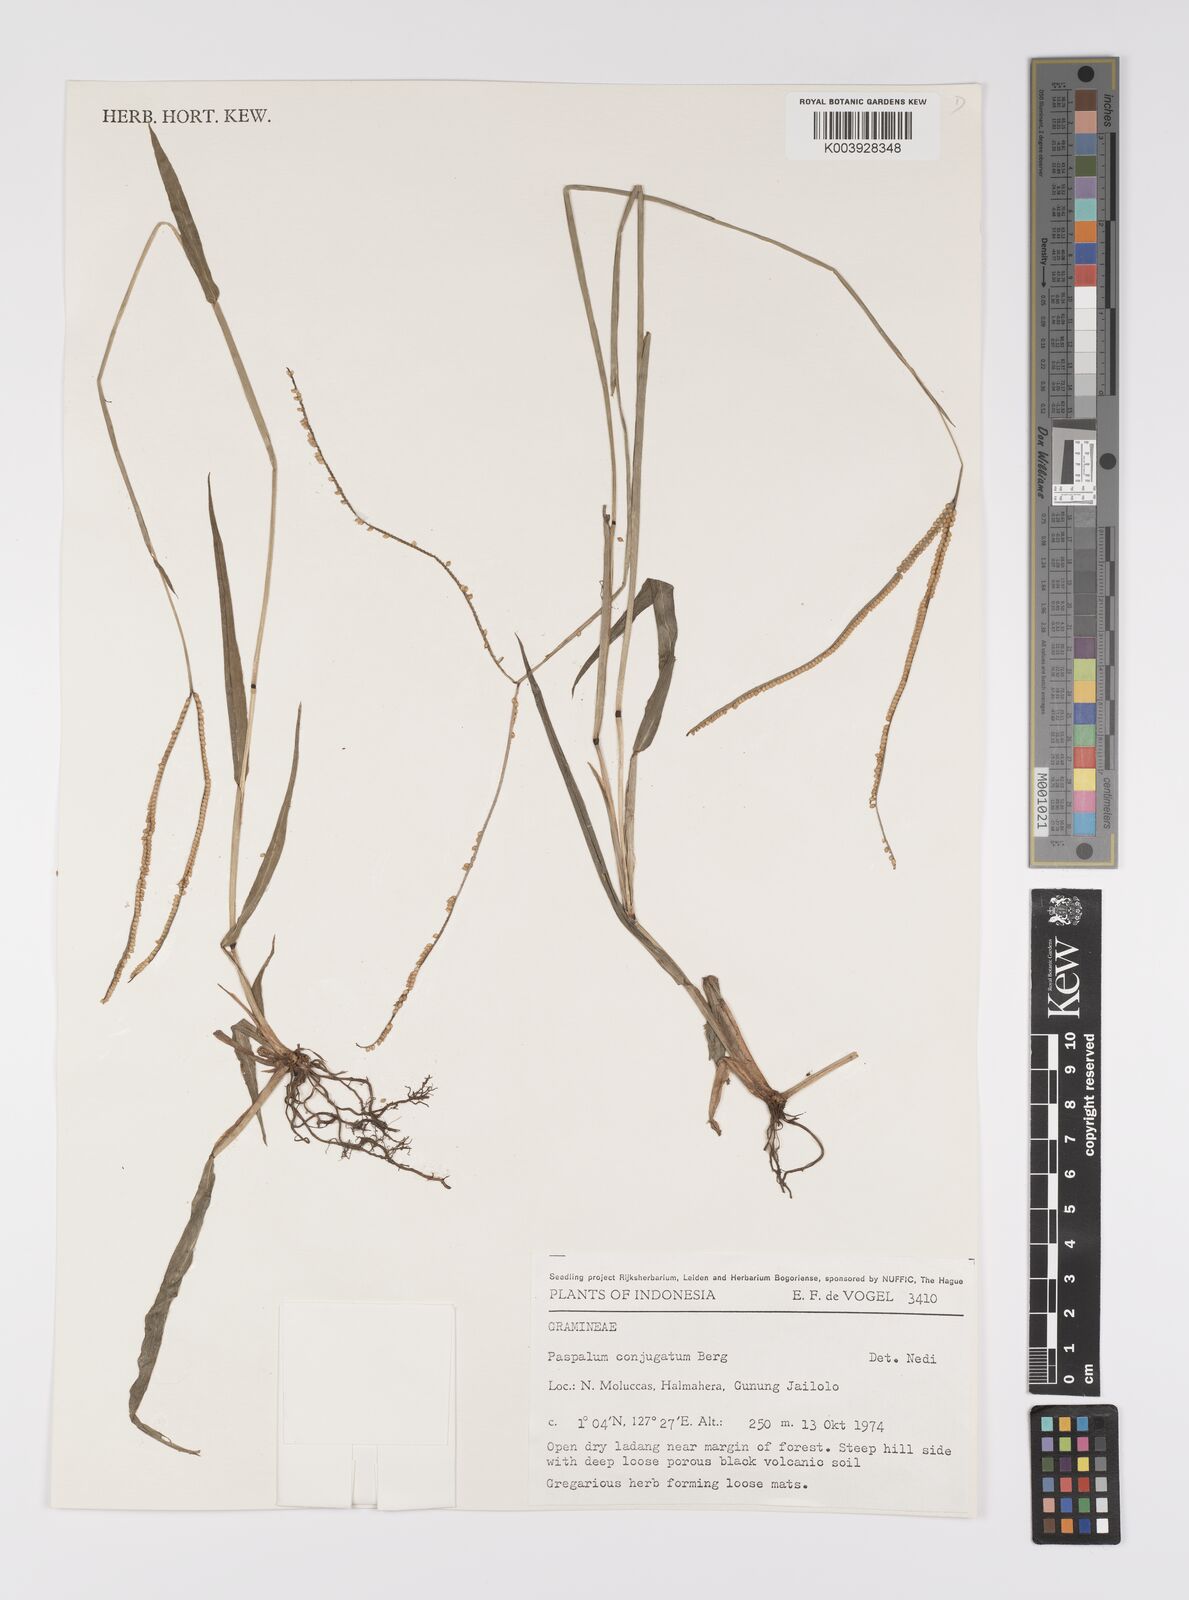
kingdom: Plantae
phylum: Tracheophyta
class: Liliopsida
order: Poales
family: Poaceae
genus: Paspalum
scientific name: Paspalum conjugatum
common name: Hilograss
